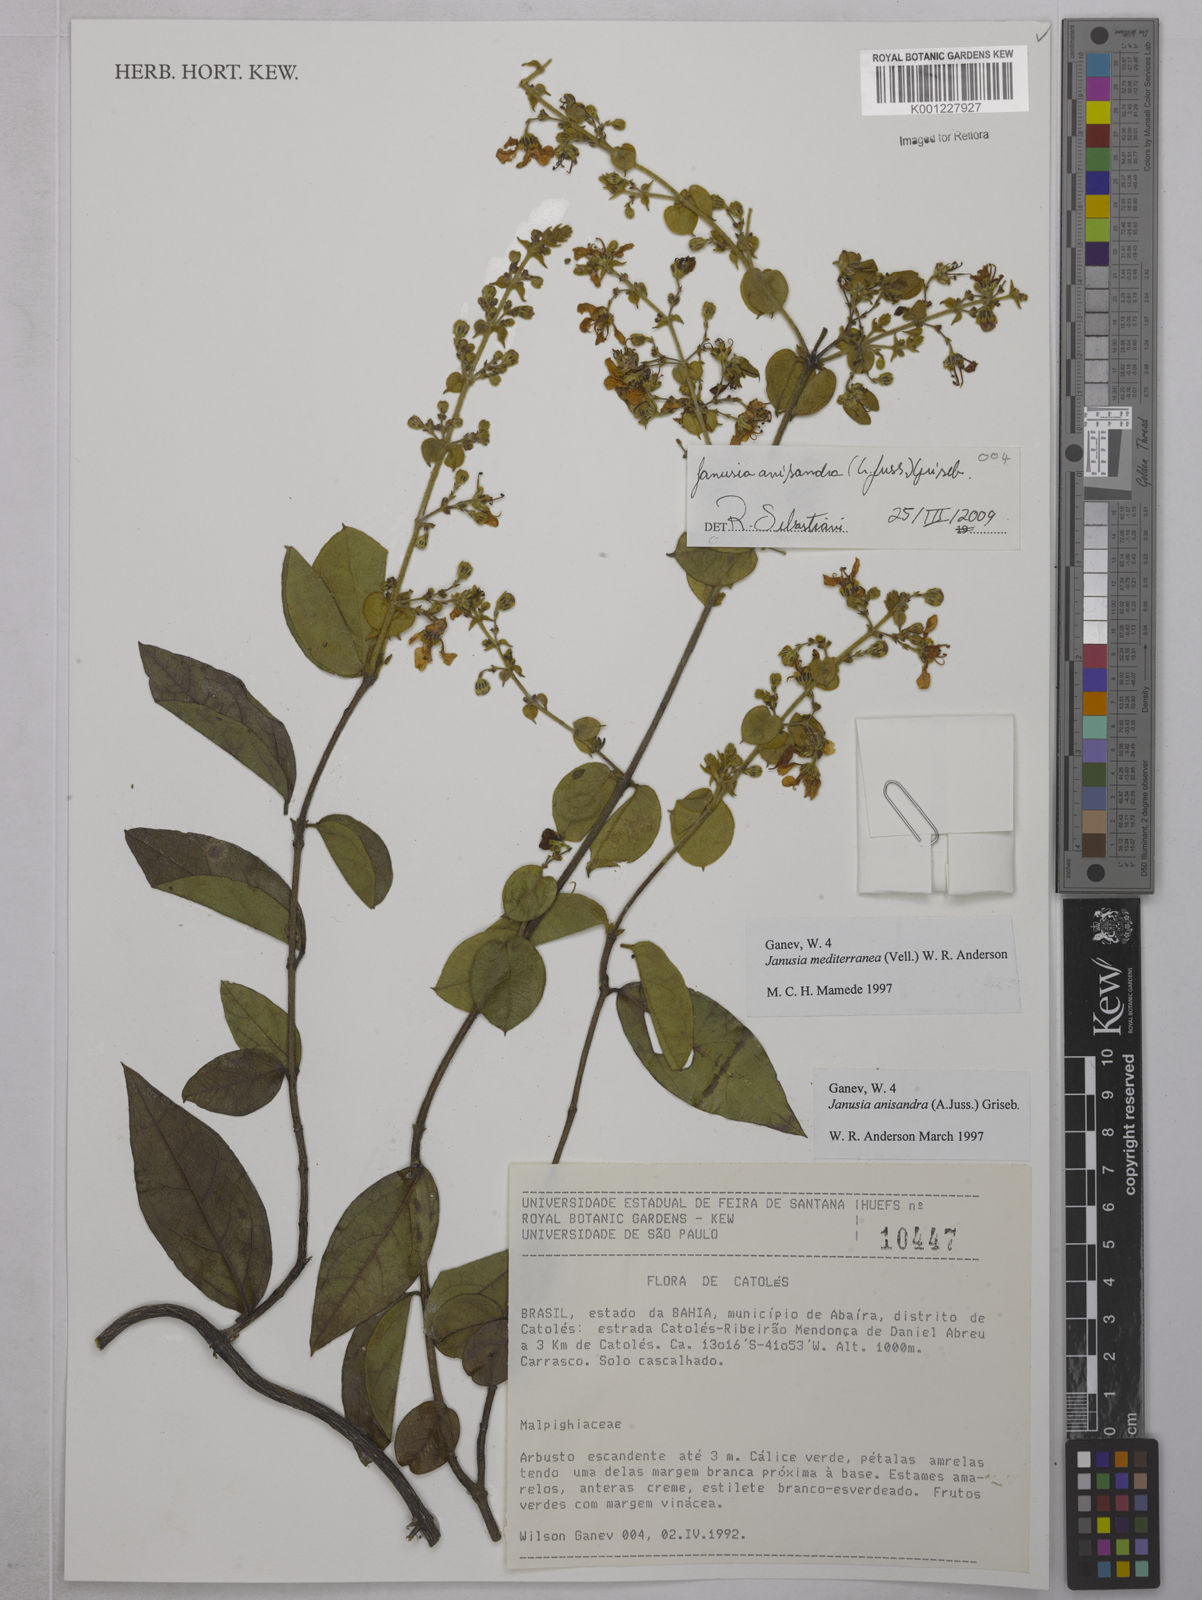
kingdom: Plantae
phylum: Tracheophyta
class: Magnoliopsida
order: Malpighiales
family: Malpighiaceae
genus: Janusia
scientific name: Janusia anisandra
